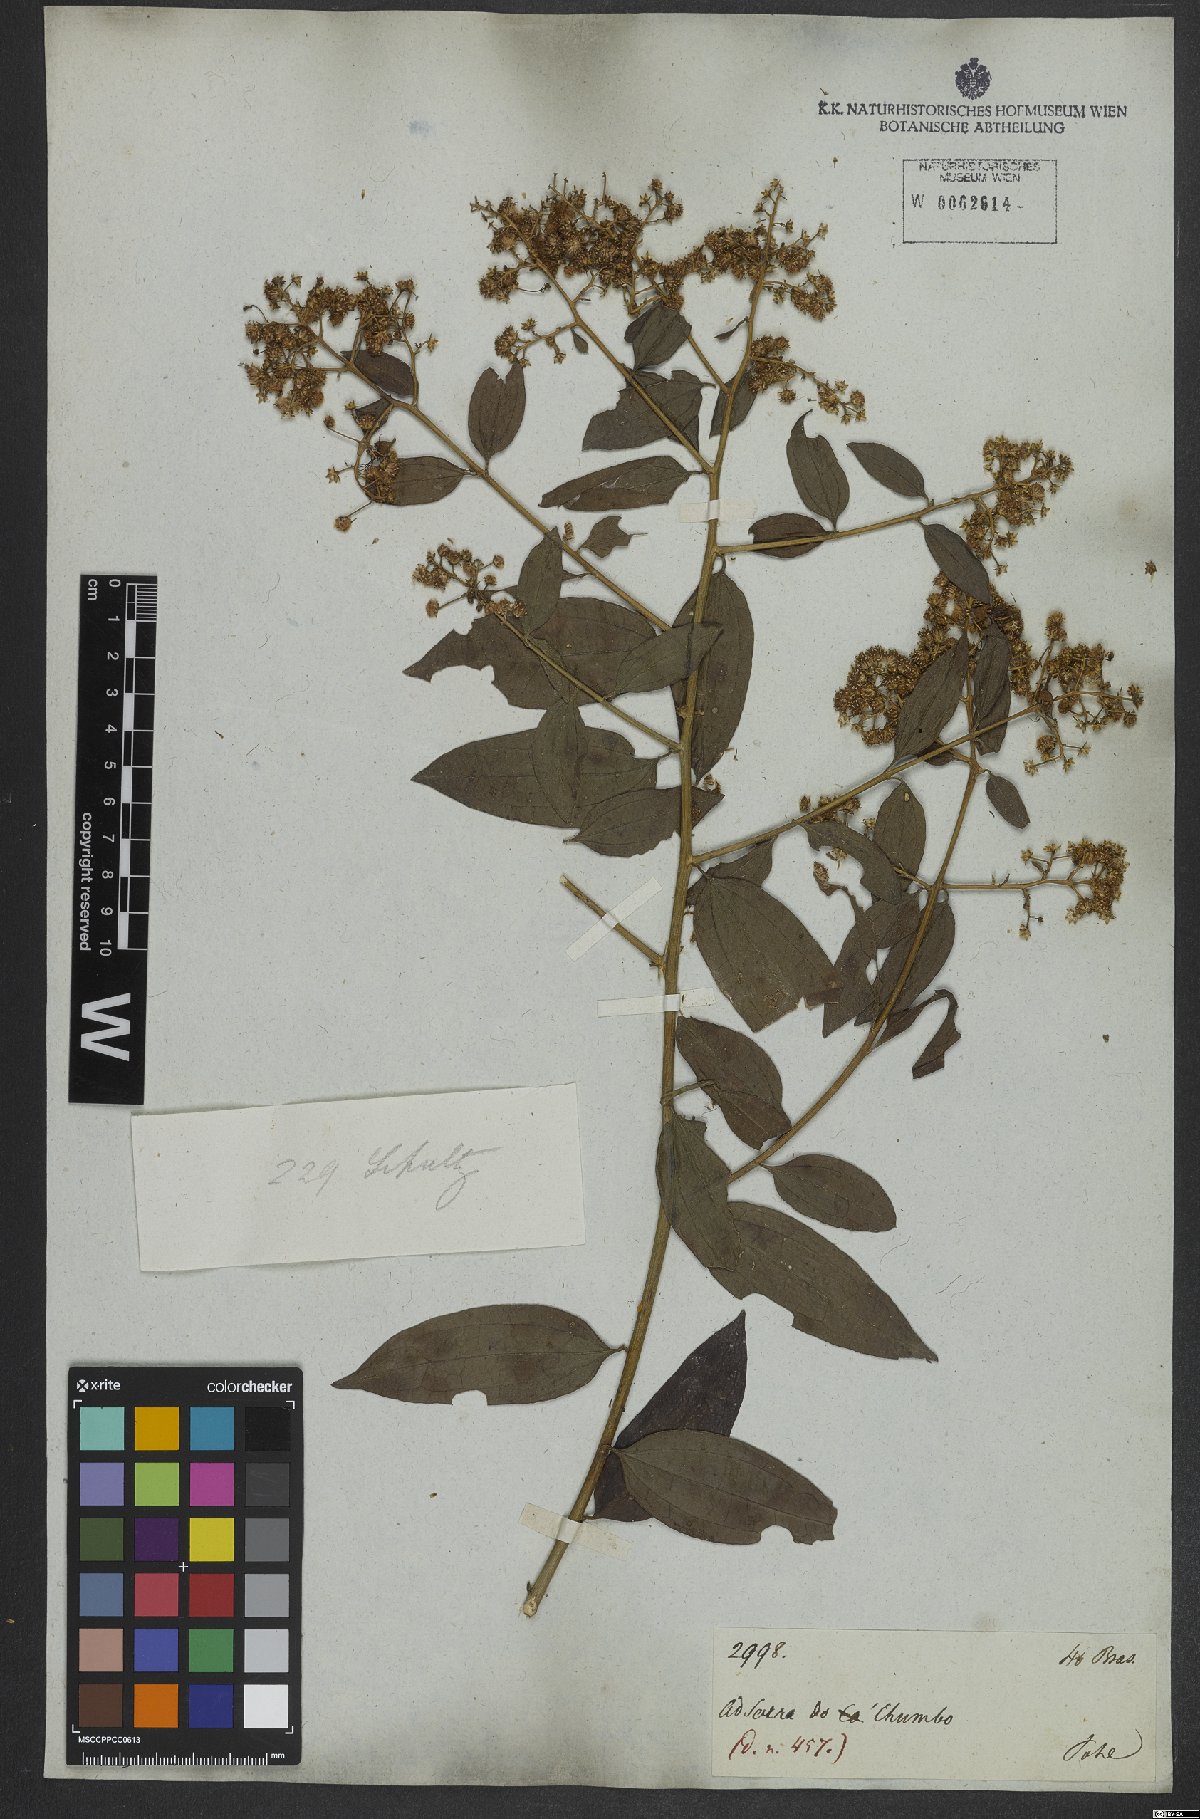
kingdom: Plantae
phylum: Tracheophyta
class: Magnoliopsida
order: Asterales
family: Asteraceae
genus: Baccharis
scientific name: Baccharis trinervis
